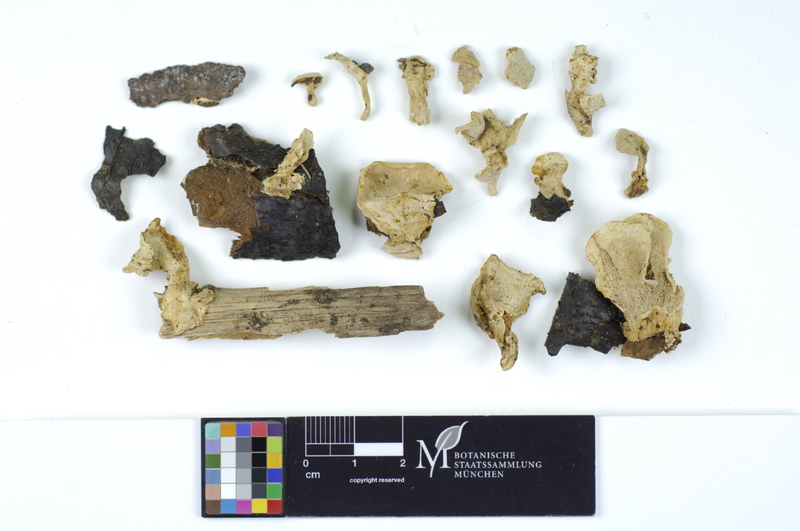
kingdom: Fungi
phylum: Basidiomycota
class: Agaricomycetes
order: Polyporales
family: Steccherinaceae
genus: Loweomyces
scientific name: Loweomyces fractipes
